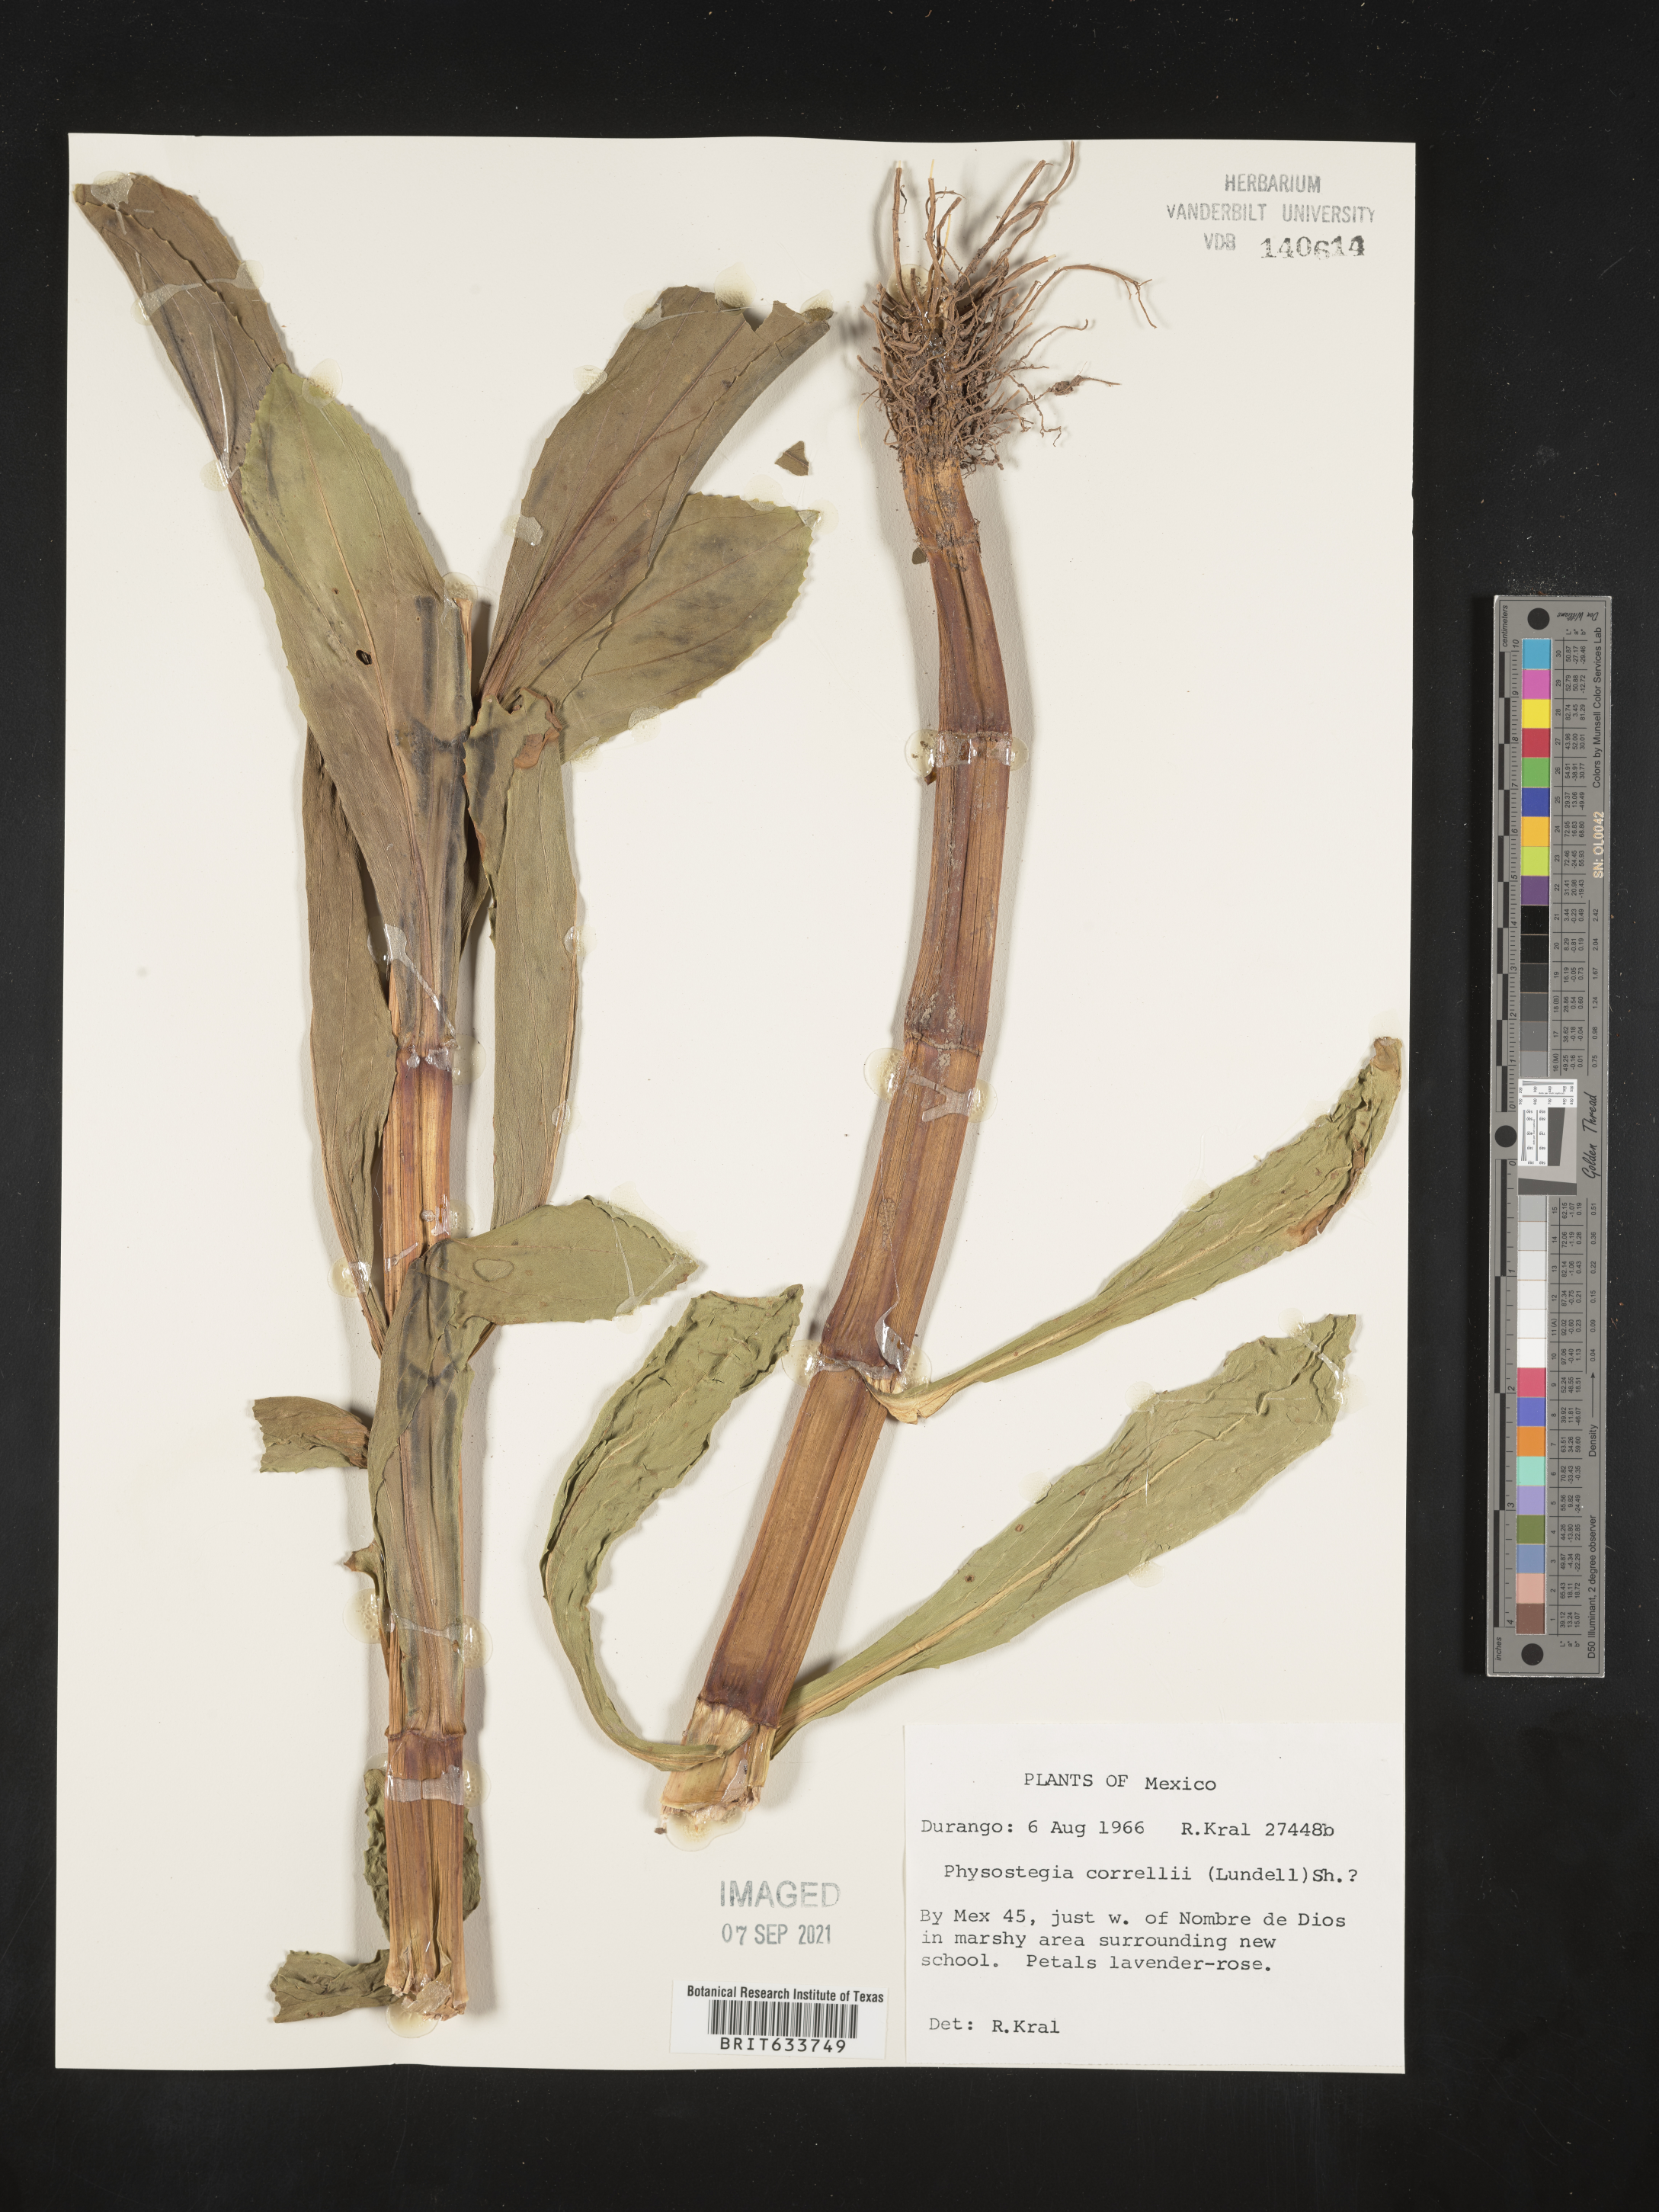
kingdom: Plantae
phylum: Tracheophyta
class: Magnoliopsida
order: Lamiales
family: Lamiaceae
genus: Physostegia
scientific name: Physostegia
